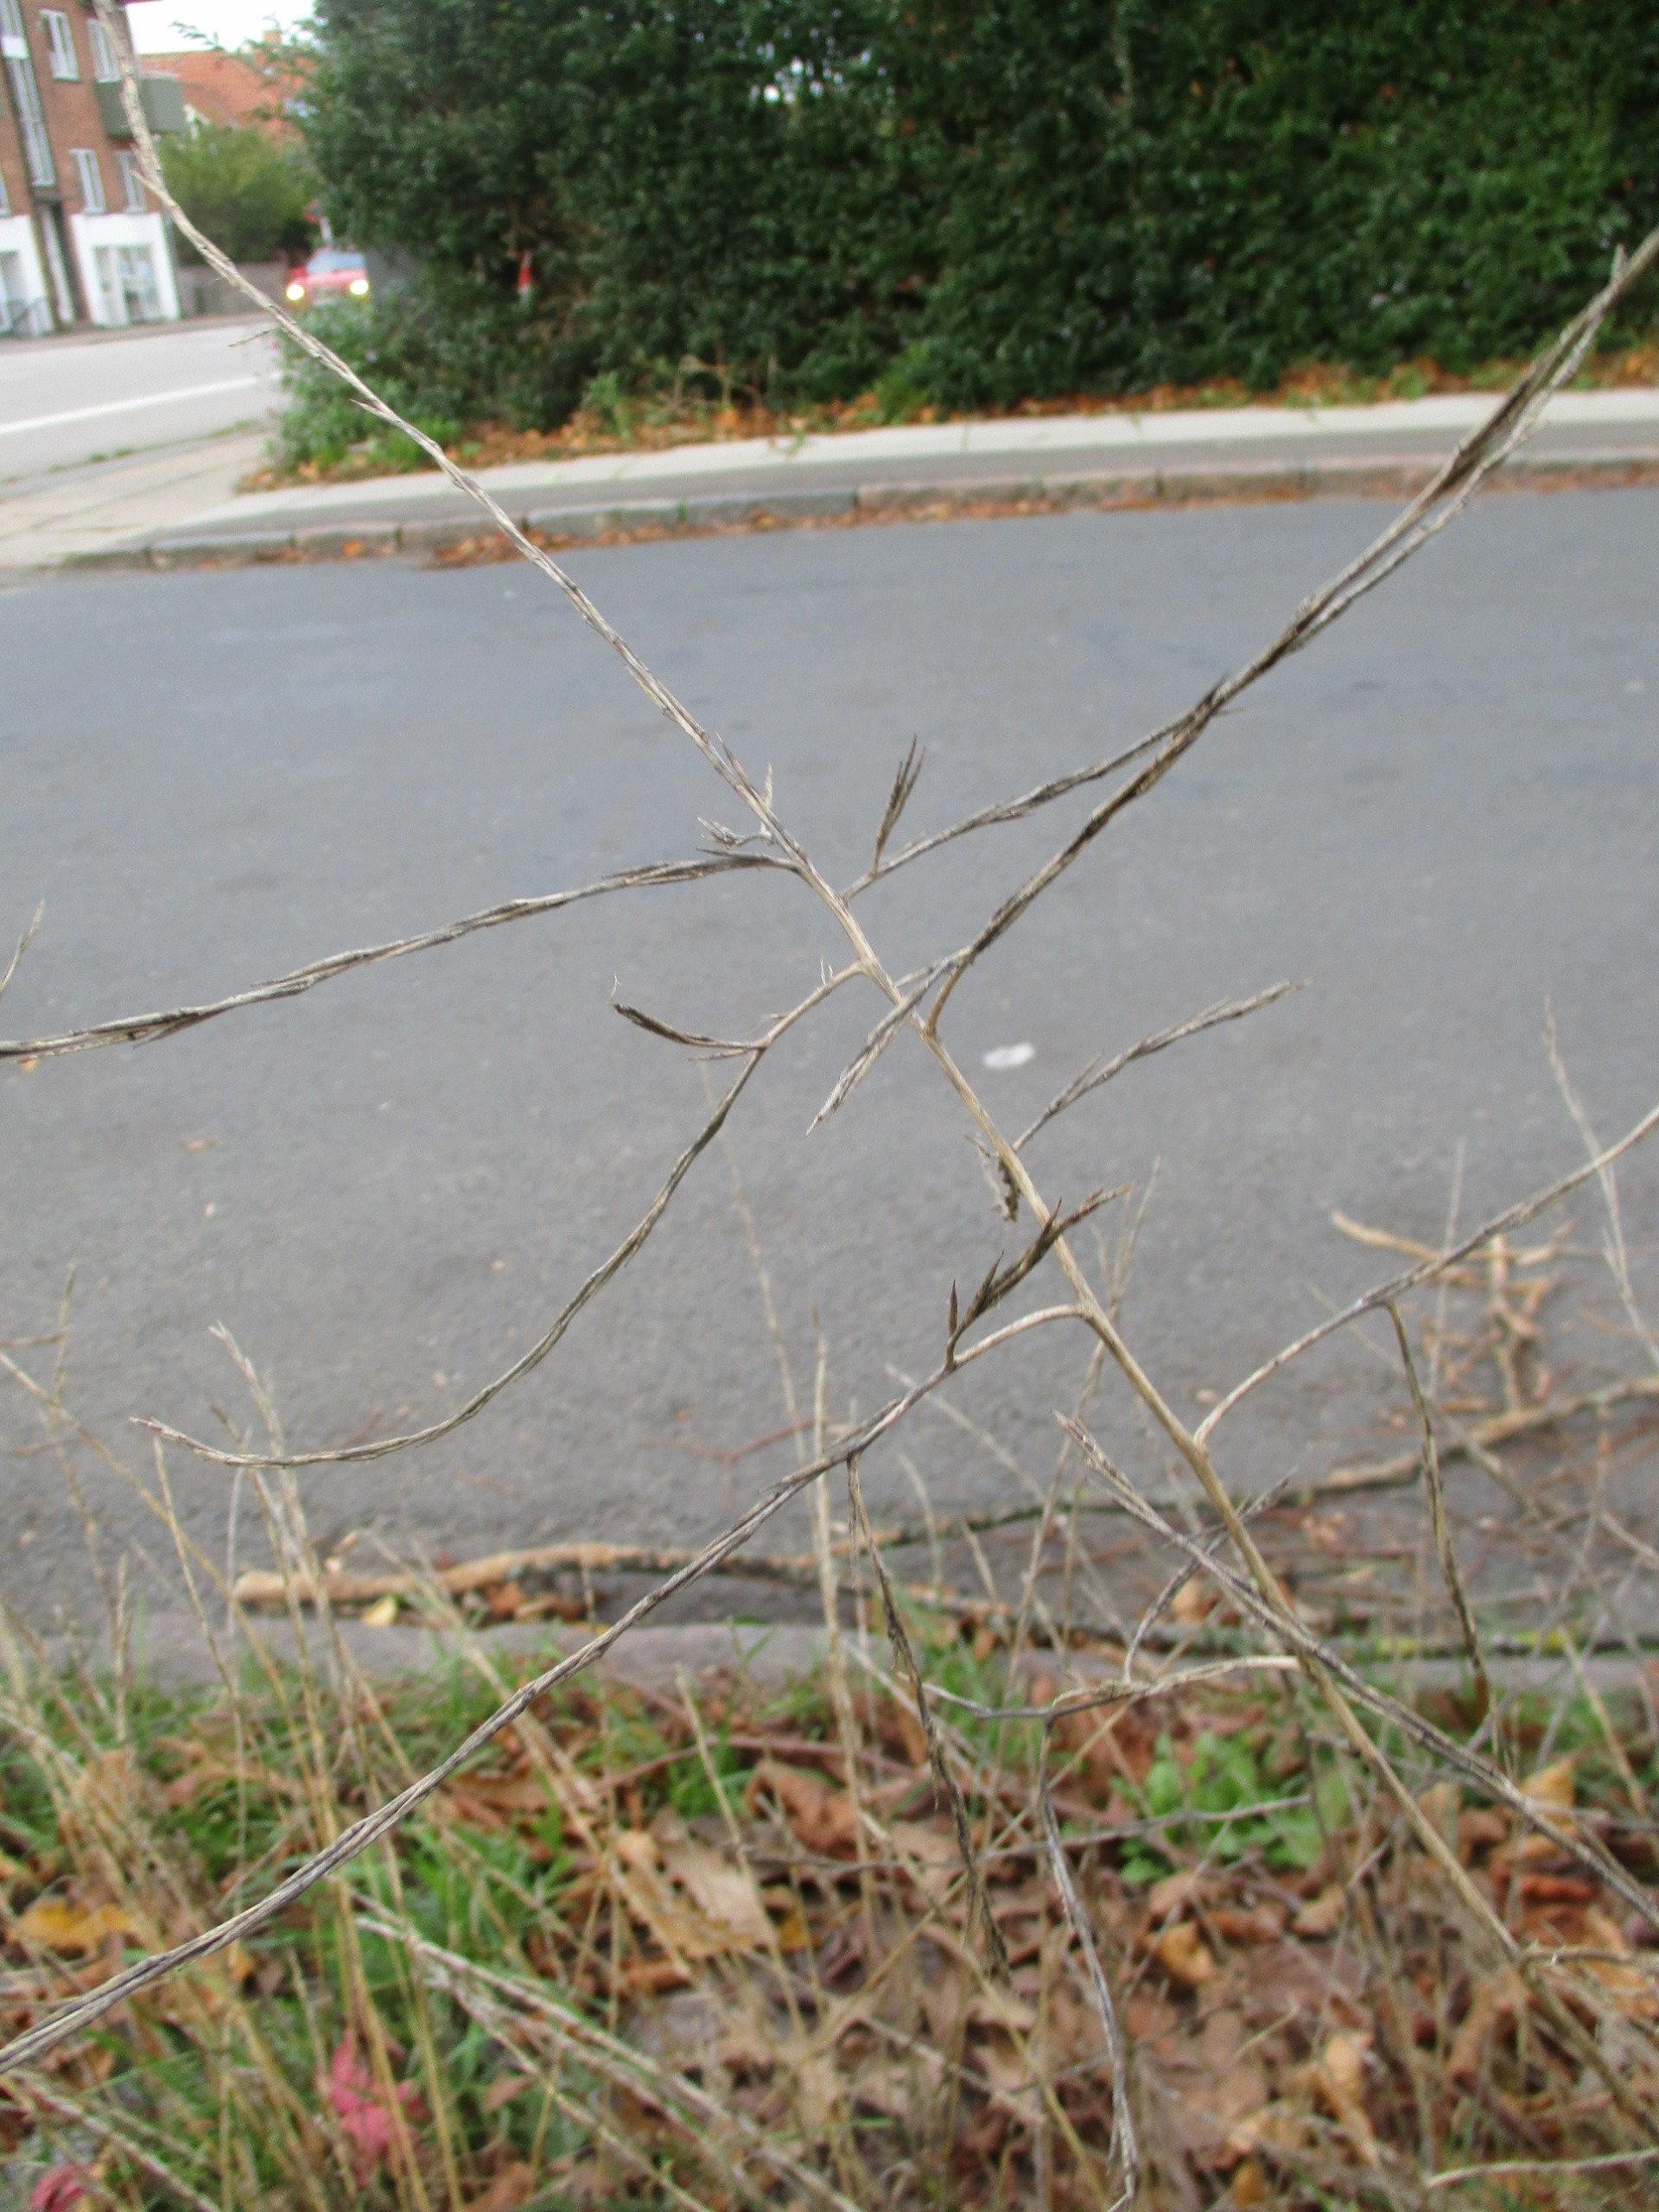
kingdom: Plantae
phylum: Tracheophyta
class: Magnoliopsida
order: Brassicales
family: Brassicaceae
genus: Sisymbrium
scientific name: Sisymbrium officinale
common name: Rank vejsennep
